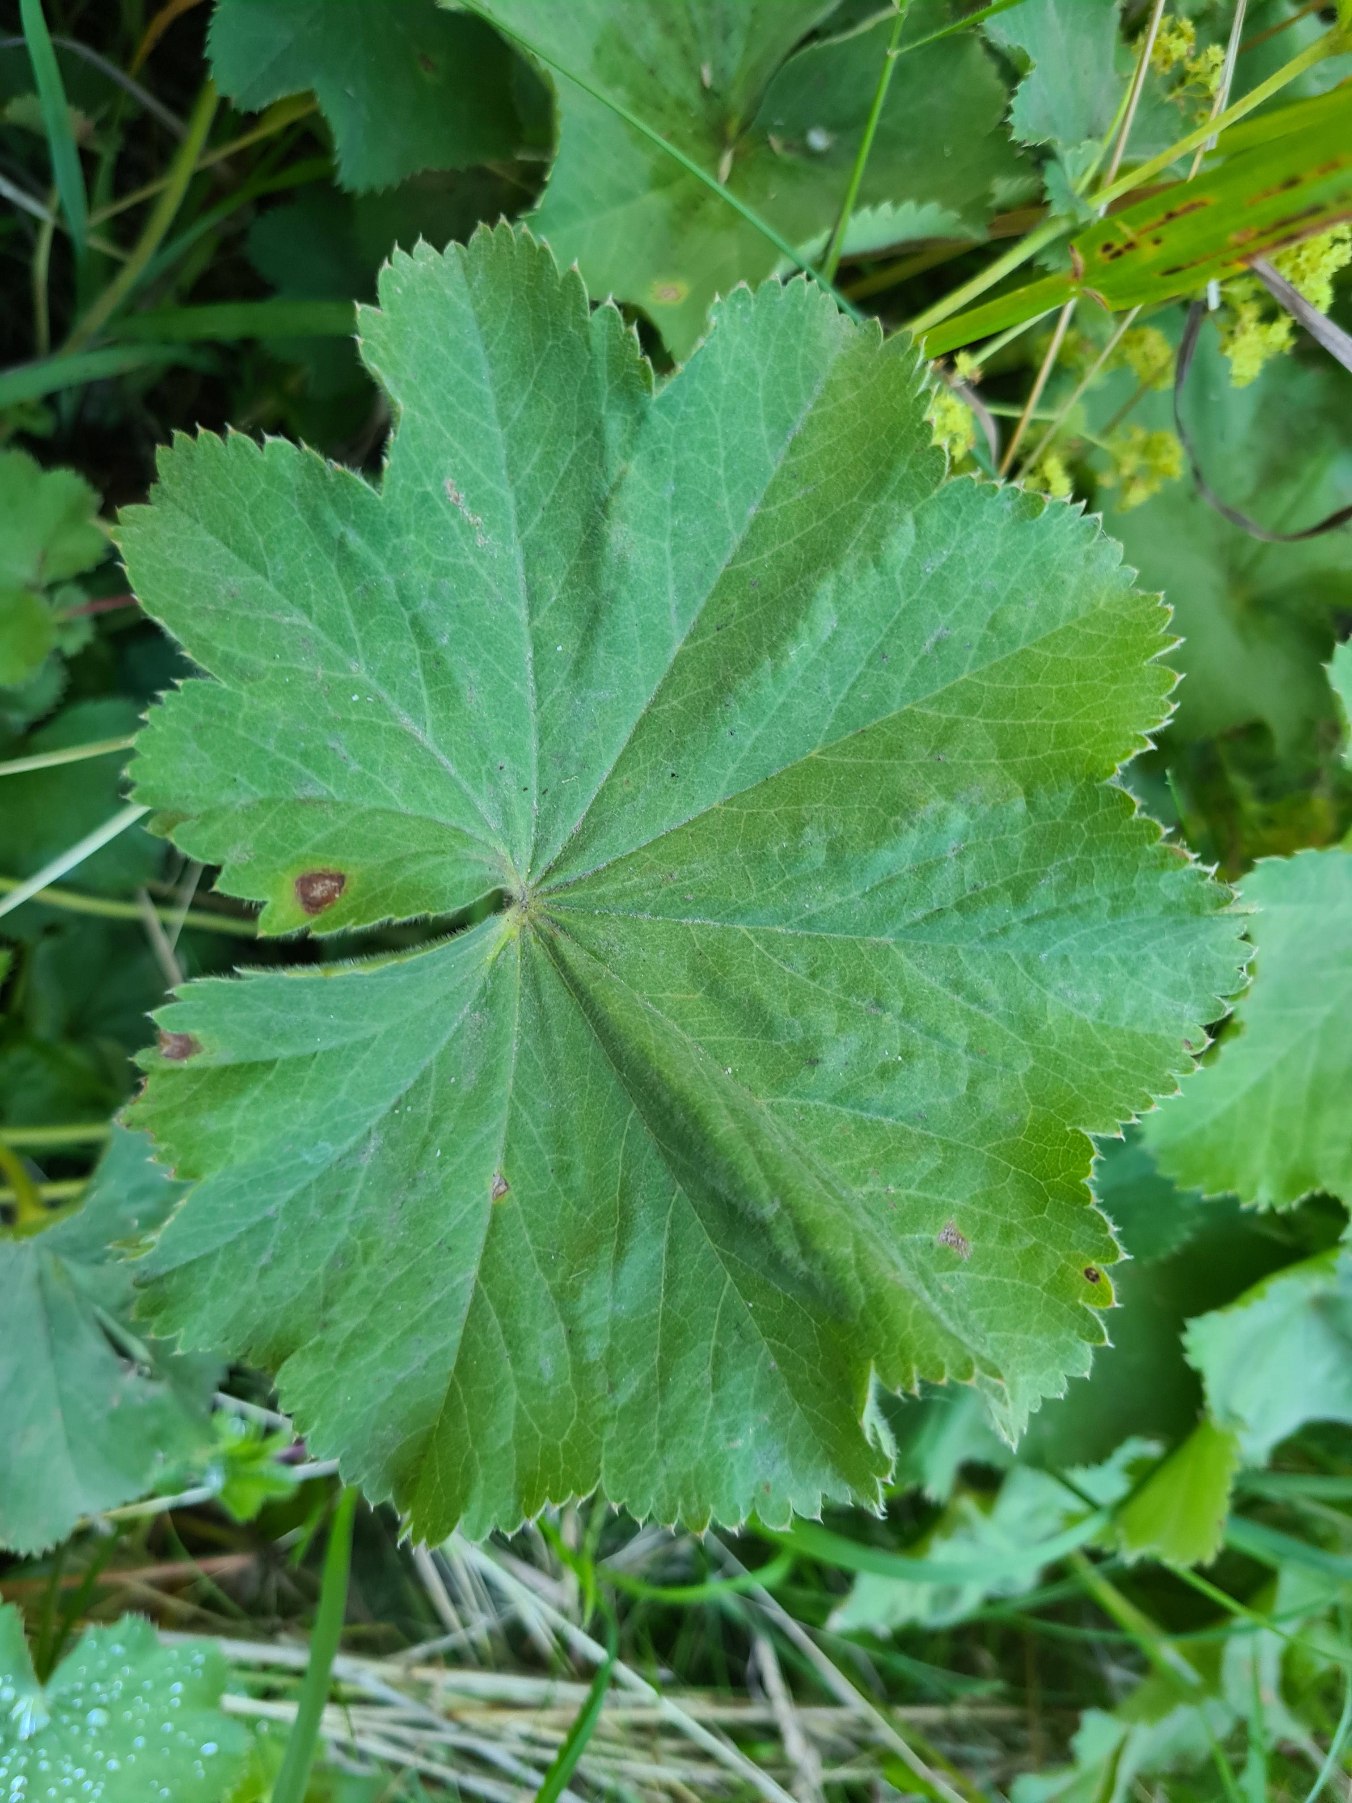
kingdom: Plantae
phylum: Tracheophyta
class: Magnoliopsida
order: Rosales
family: Rosaceae
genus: Alchemilla
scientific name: Alchemilla mollis
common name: Lådden løvefod
